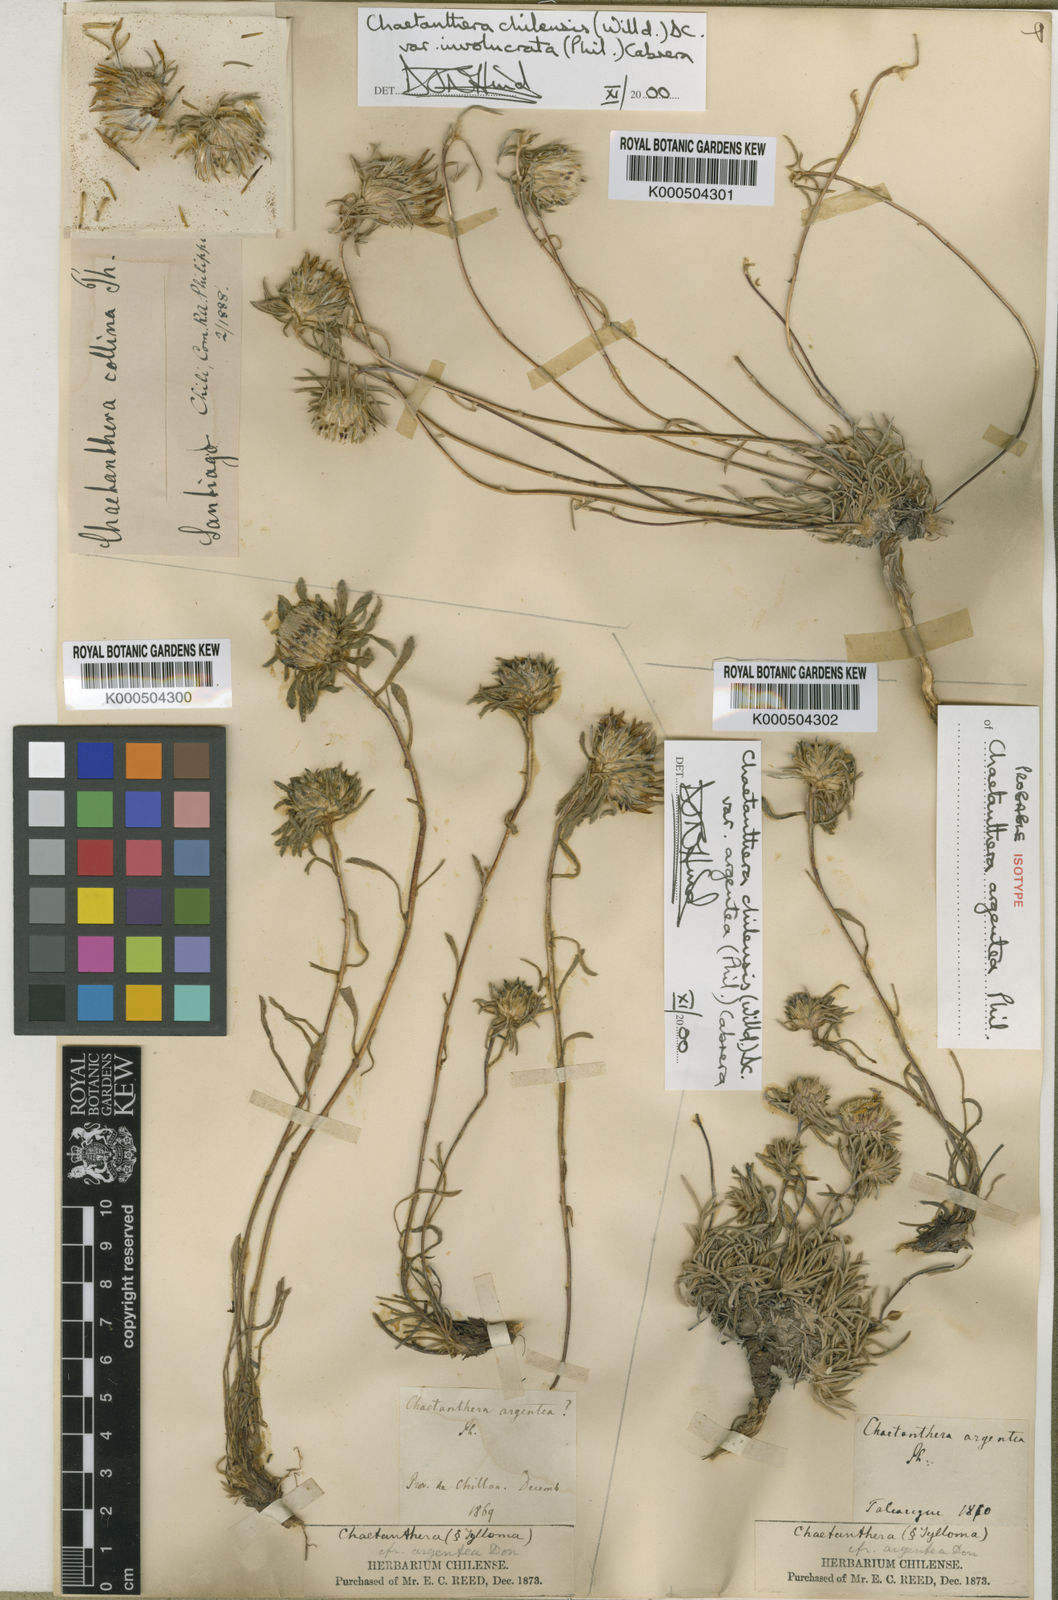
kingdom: Plantae
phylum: Tracheophyta
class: Magnoliopsida
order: Asterales
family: Asteraceae
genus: Chaetanthera
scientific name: Chaetanthera chilensis
